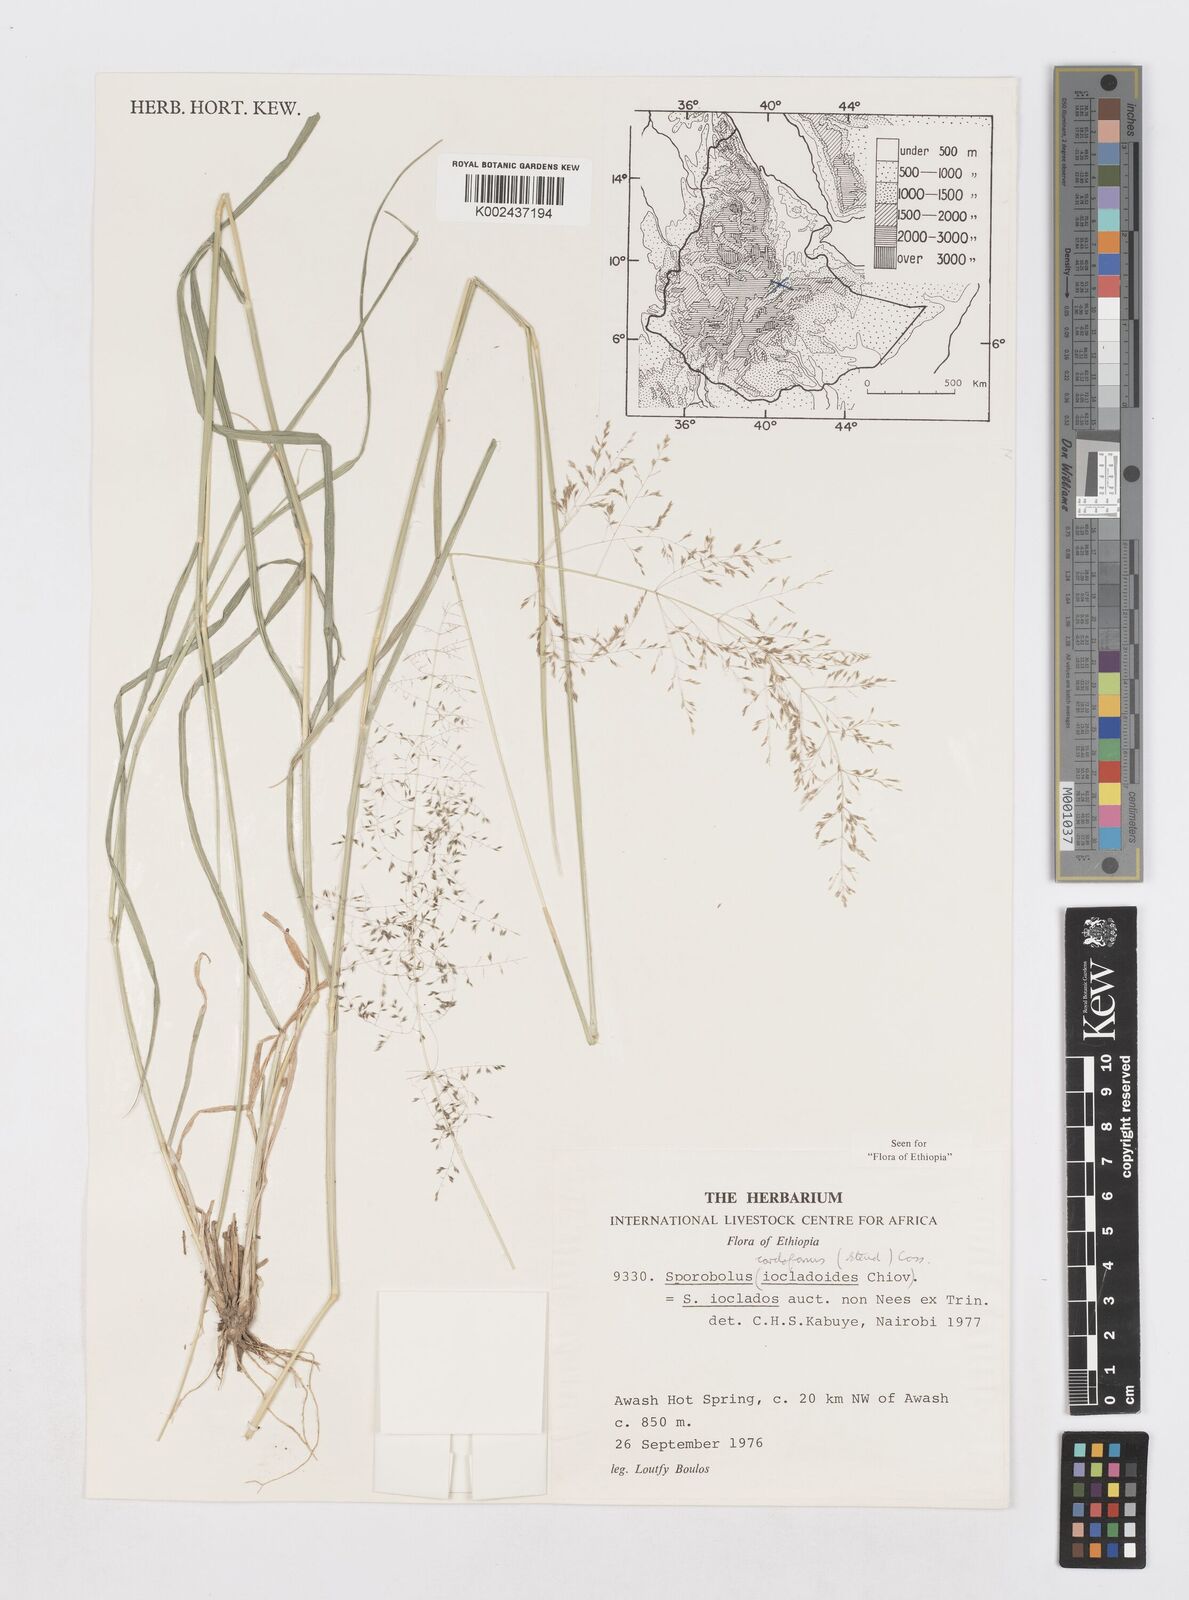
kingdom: Plantae
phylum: Tracheophyta
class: Liliopsida
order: Poales
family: Poaceae
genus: Sporobolus
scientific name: Sporobolus cordofanus
